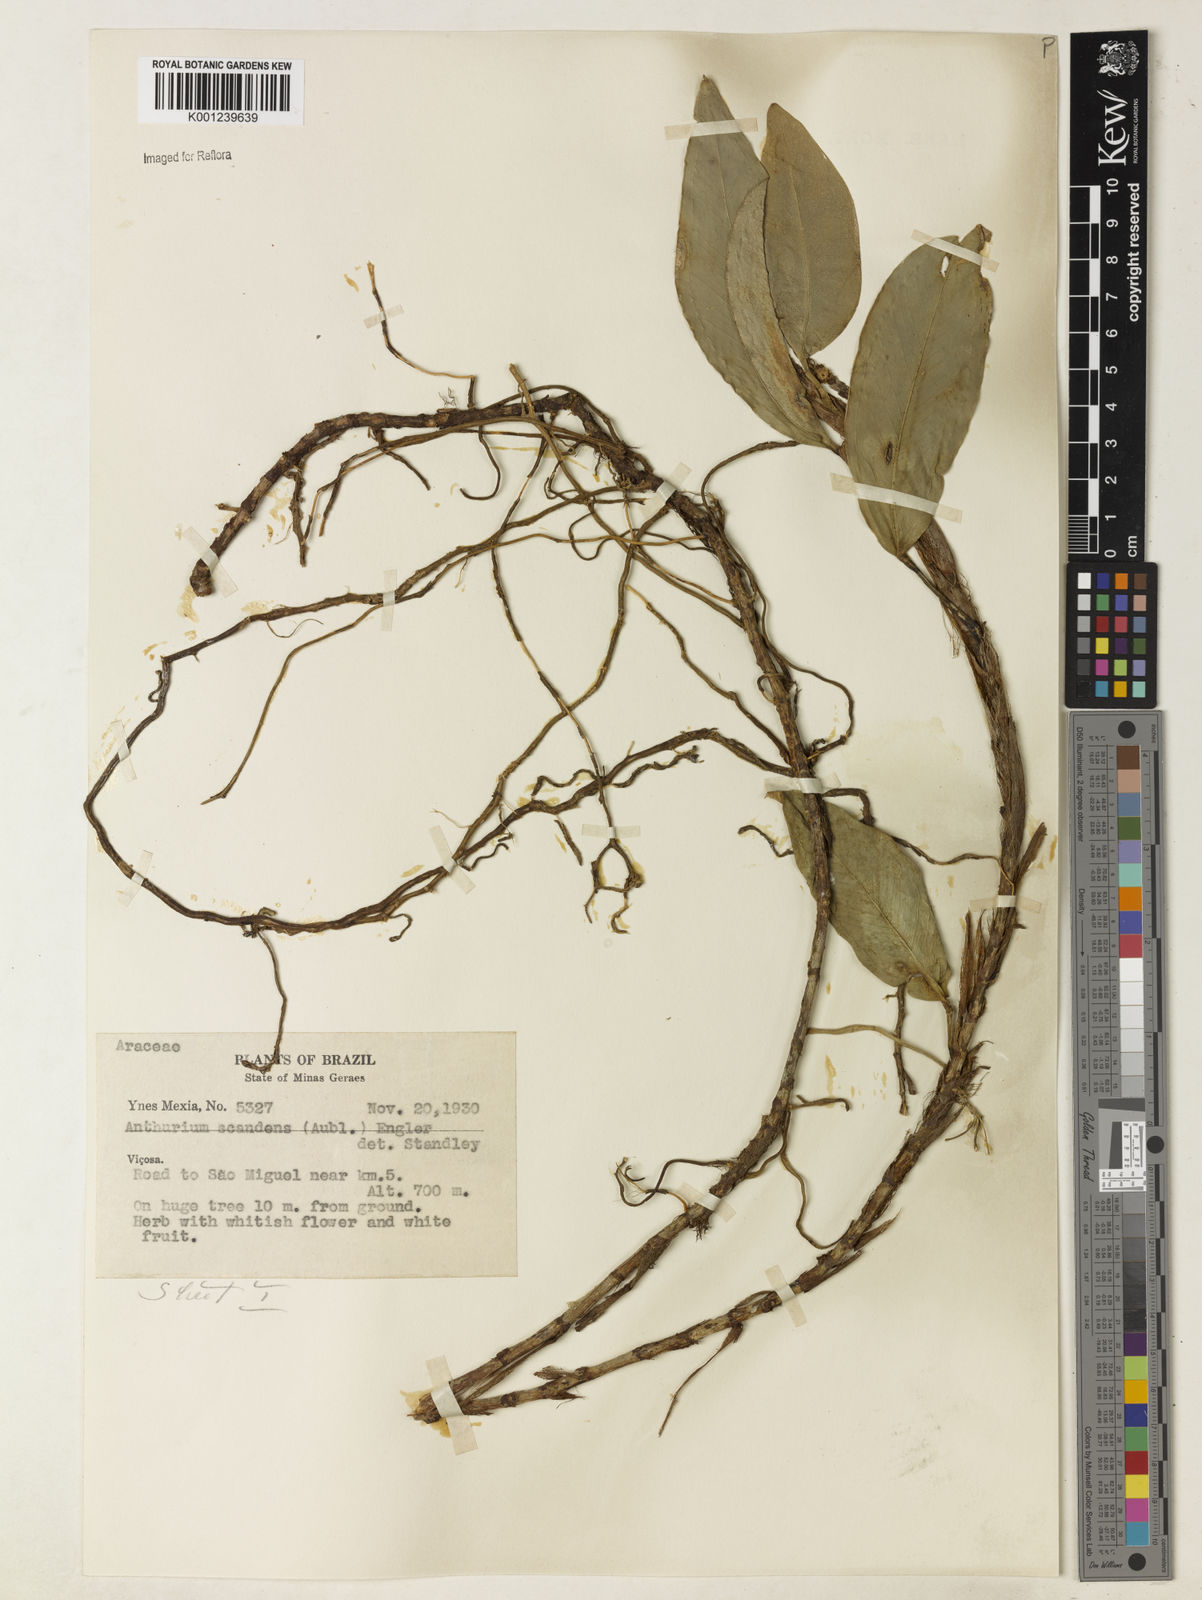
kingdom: Plantae
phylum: Tracheophyta
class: Liliopsida
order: Alismatales
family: Araceae
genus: Anthurium
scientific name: Anthurium scandens
